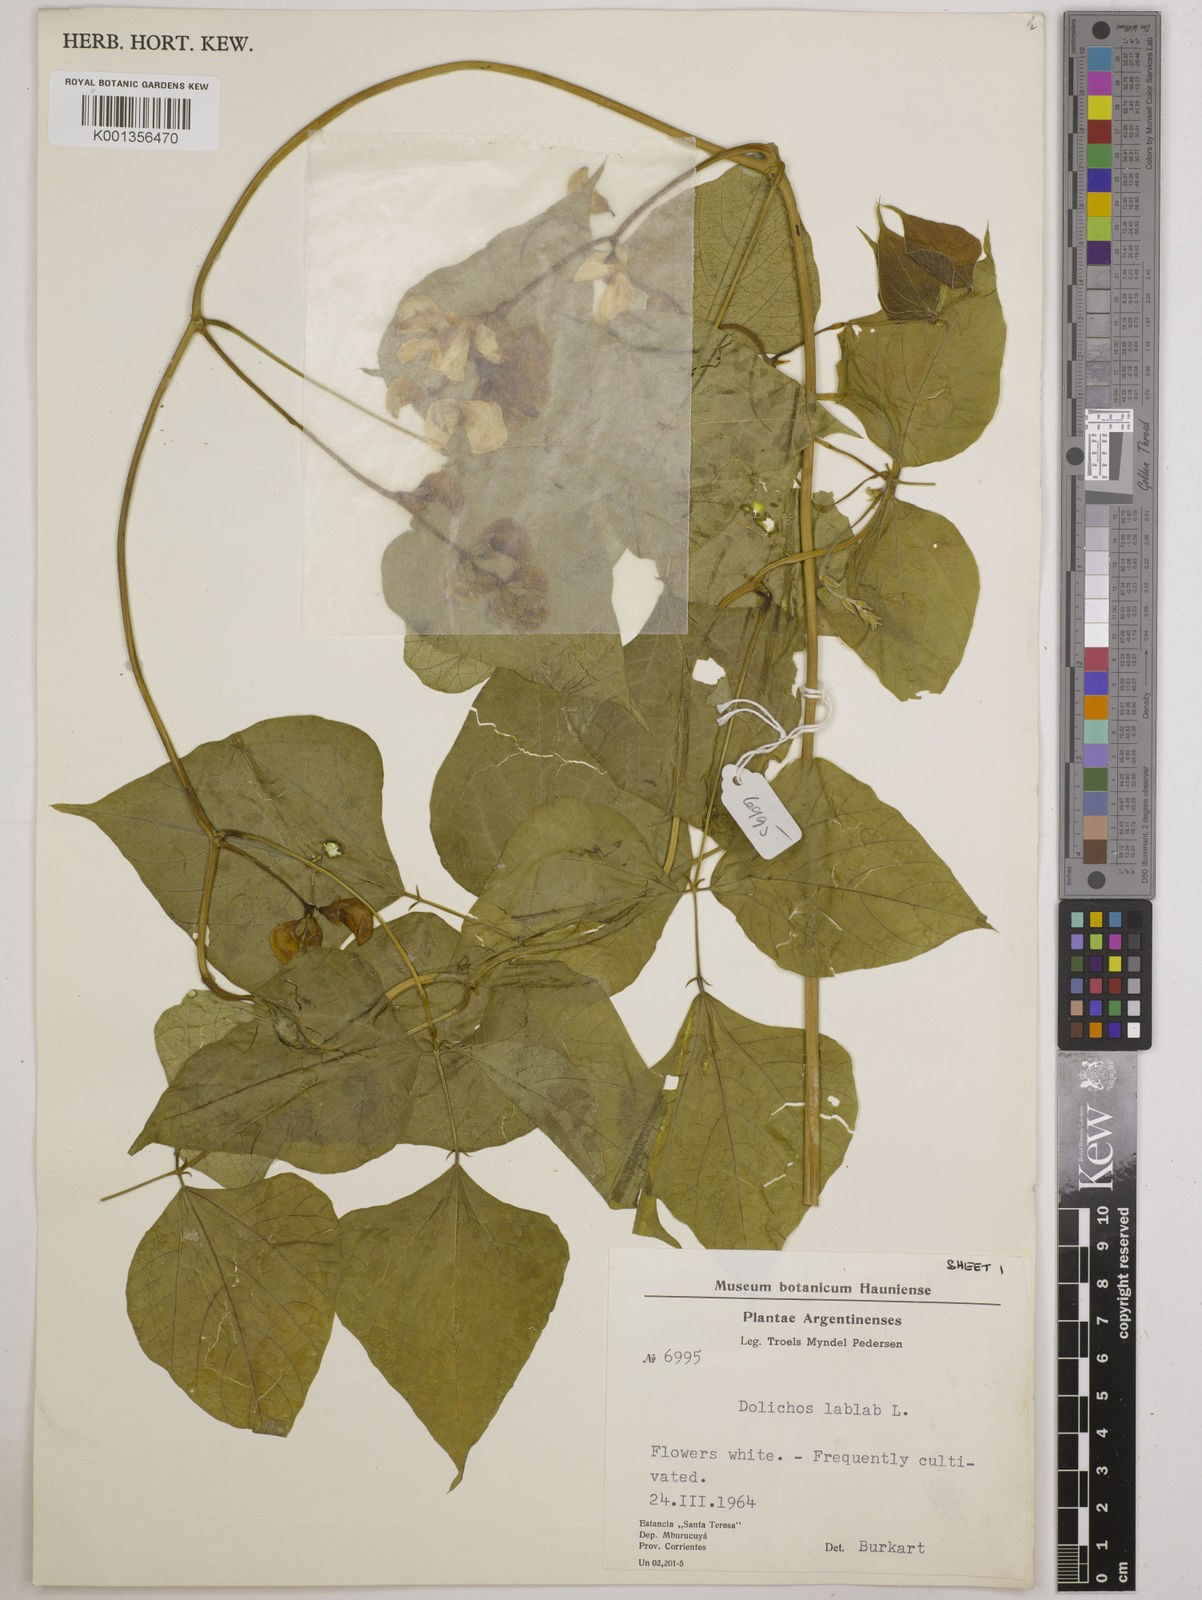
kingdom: Plantae
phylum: Tracheophyta
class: Magnoliopsida
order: Fabales
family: Fabaceae
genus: Lablab
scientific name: Lablab purpureus
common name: Lablab-bean
